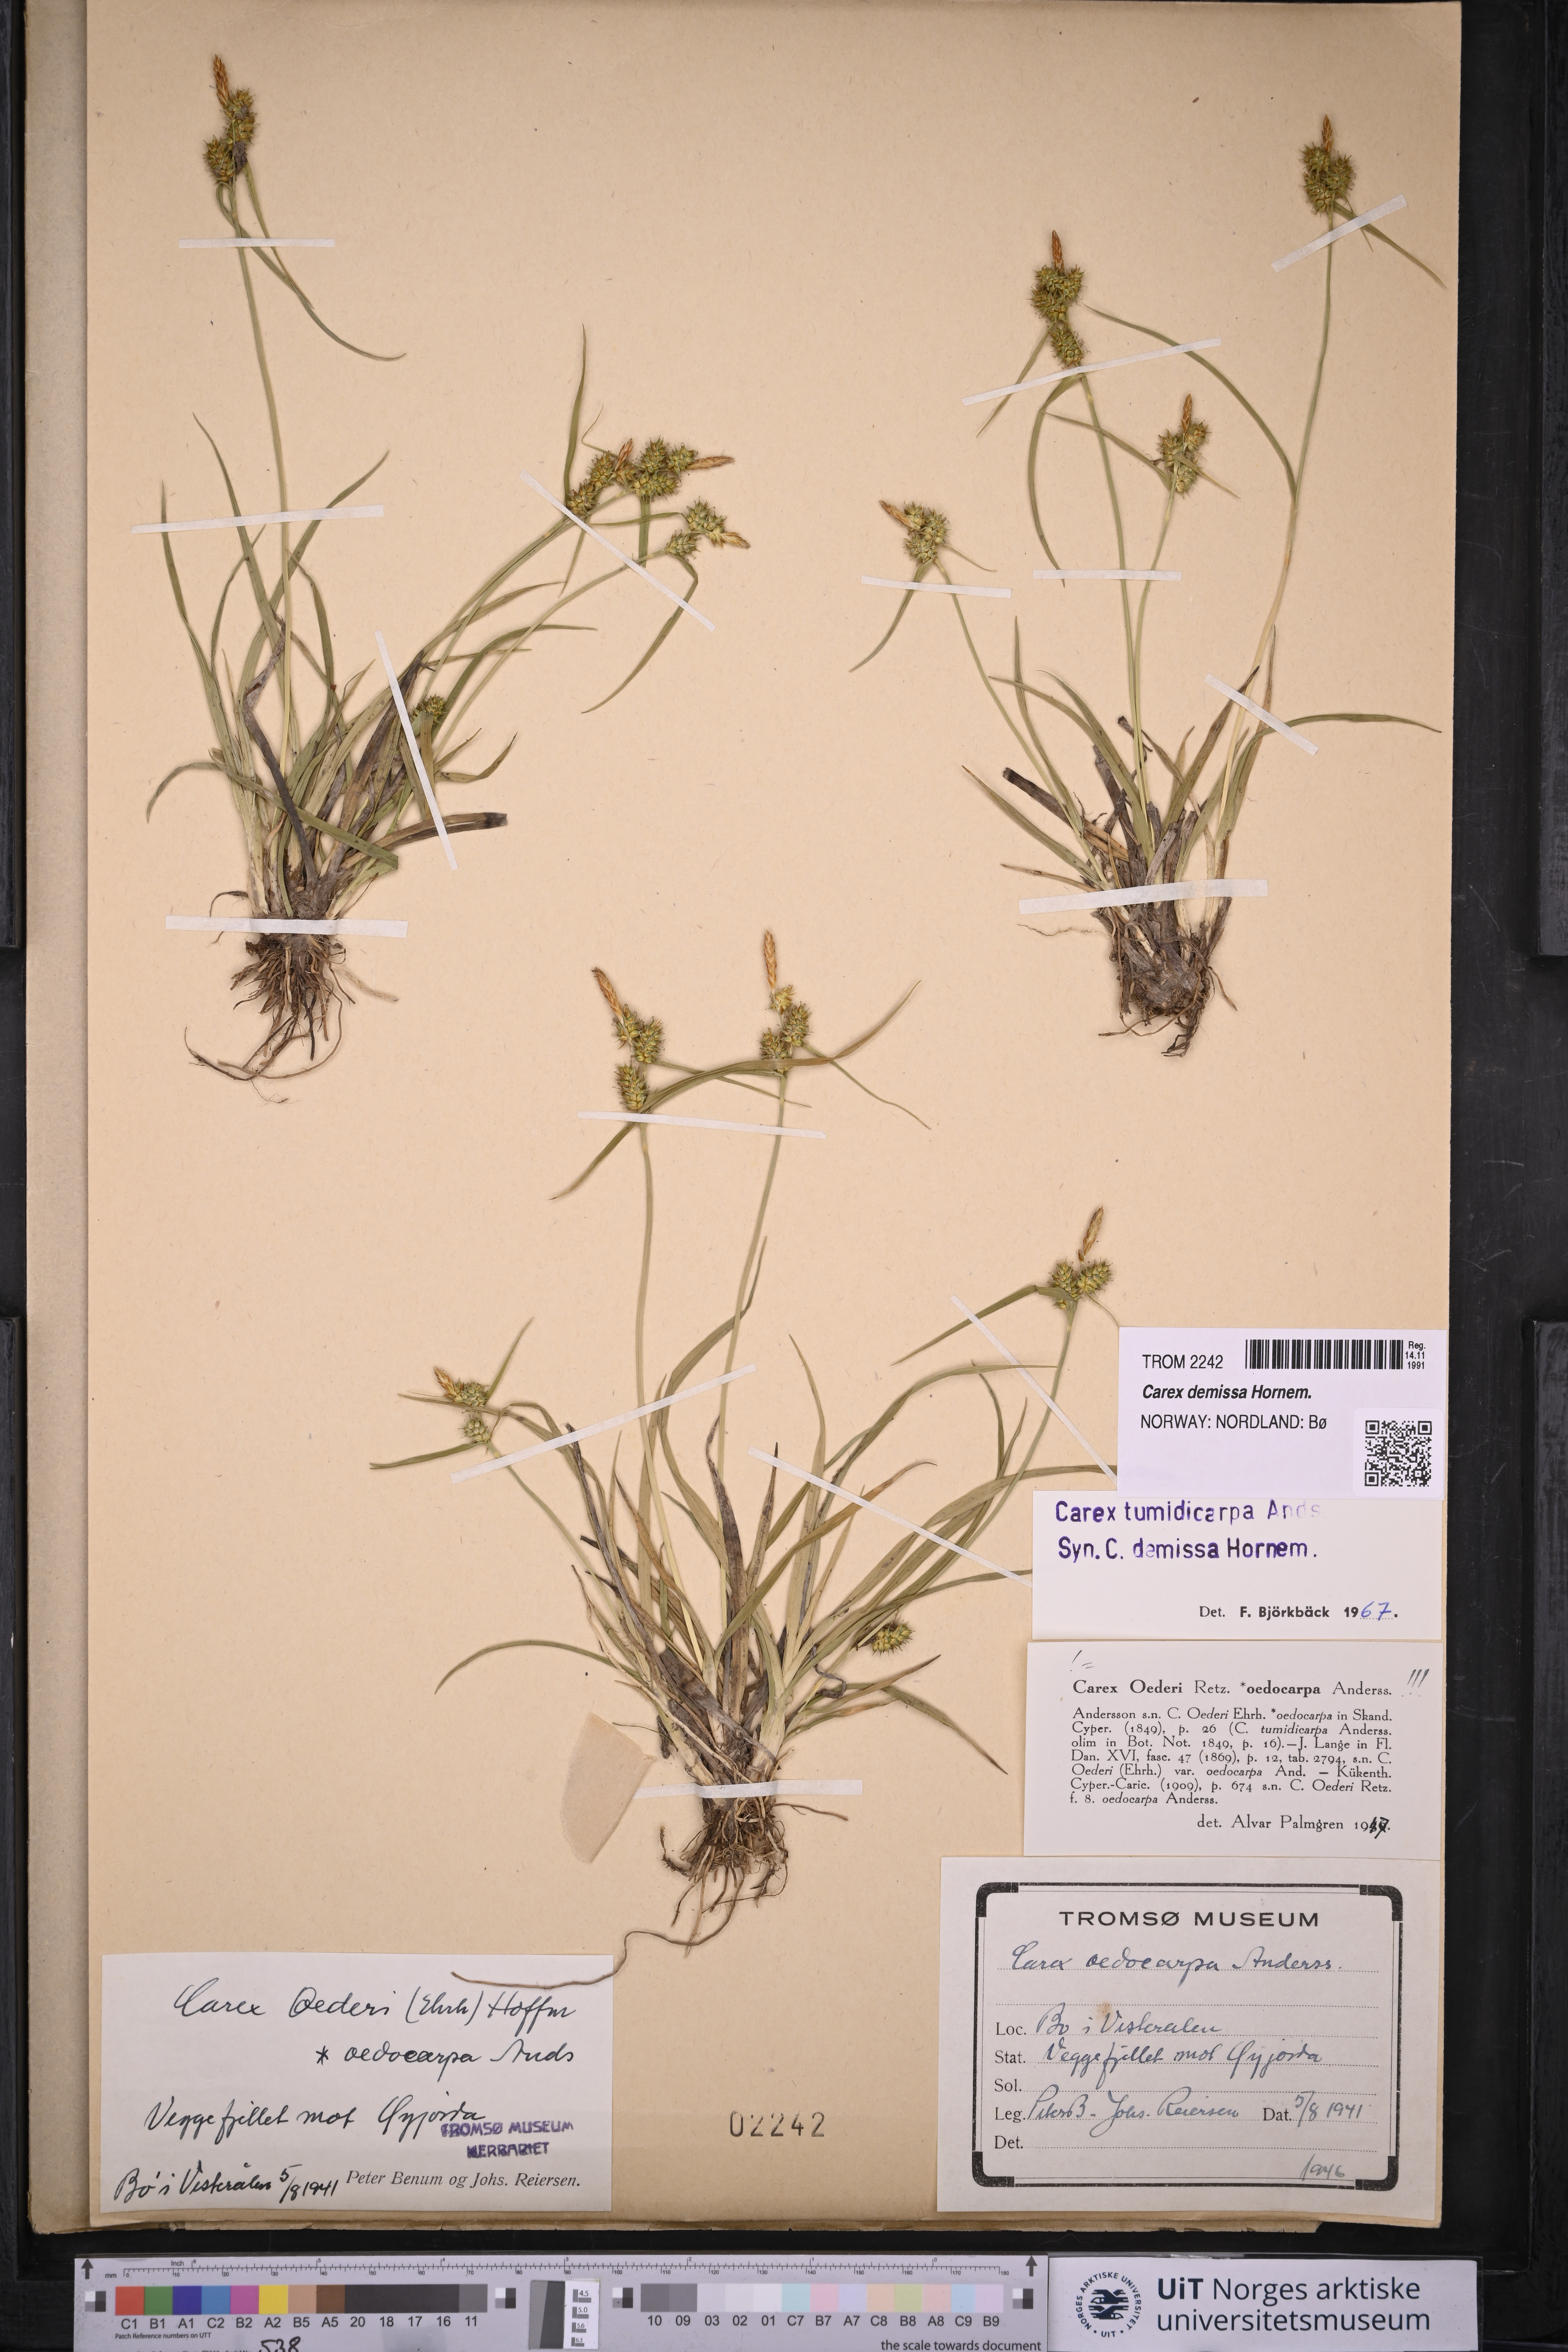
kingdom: Plantae
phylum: Tracheophyta
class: Liliopsida
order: Poales
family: Cyperaceae
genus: Carex
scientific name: Carex demissa
